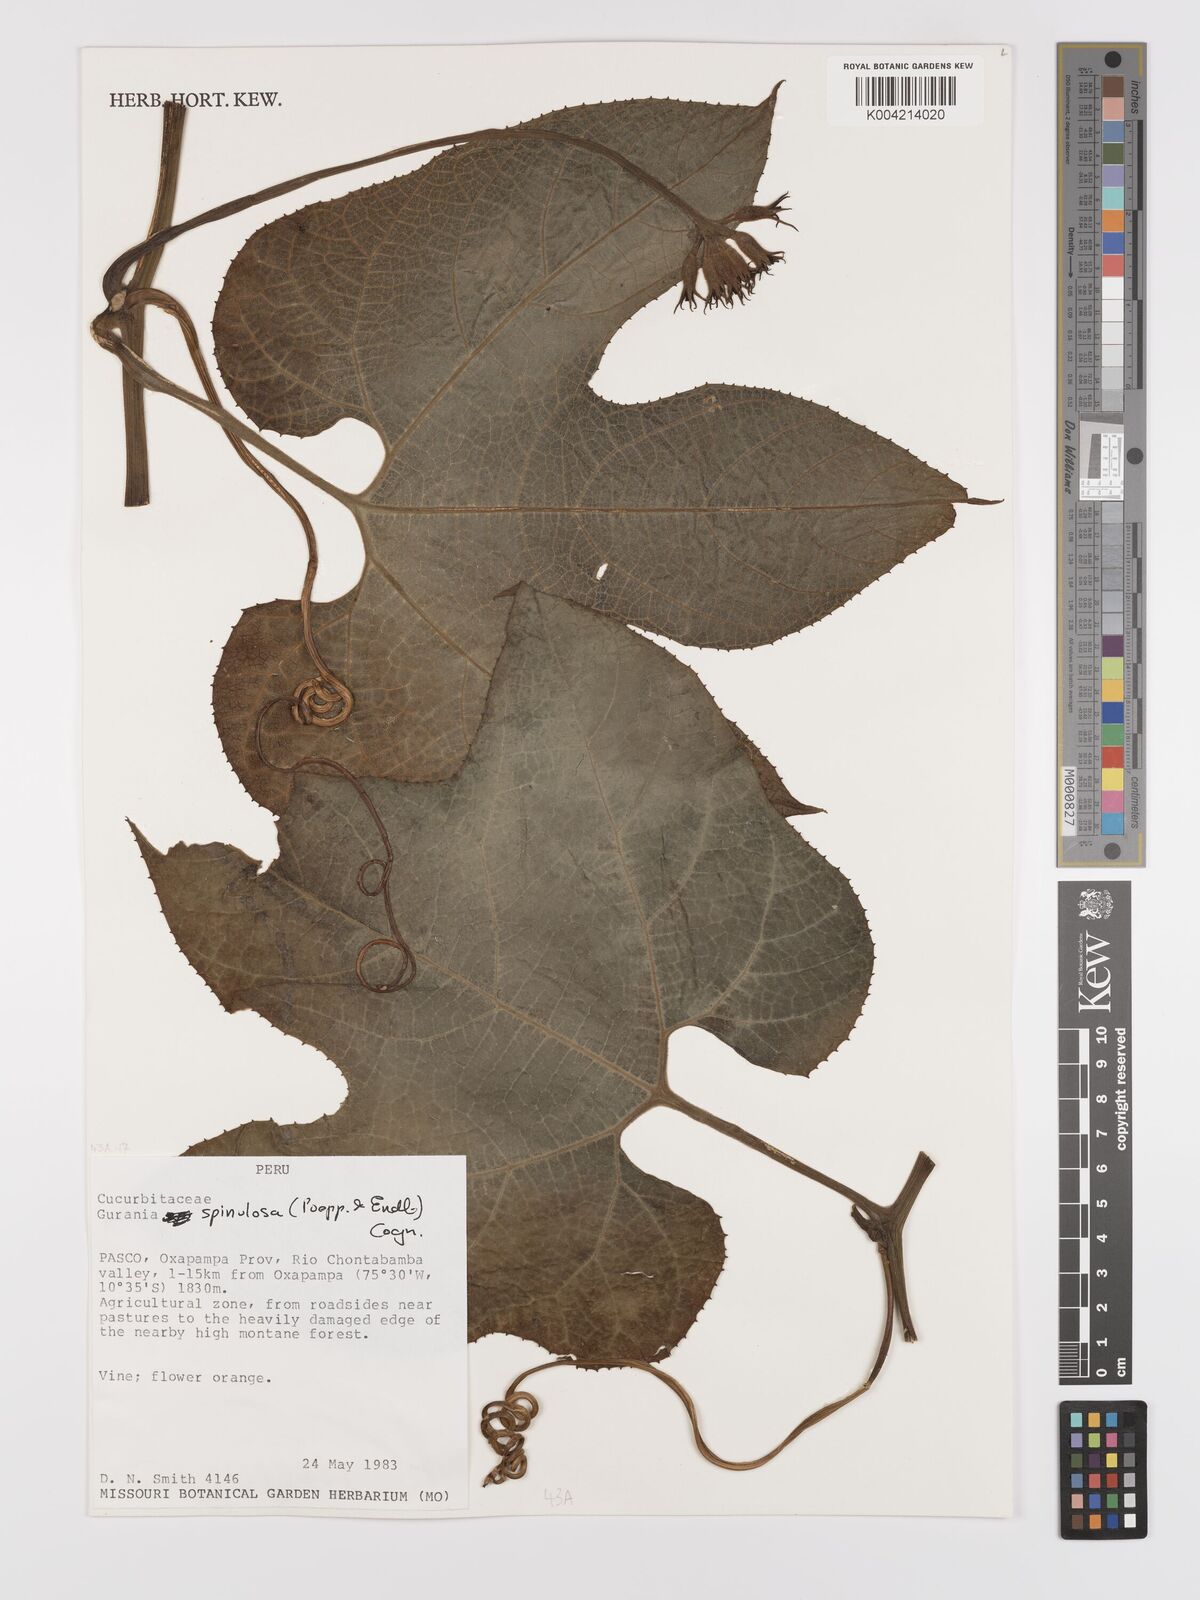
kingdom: Plantae
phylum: Tracheophyta
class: Magnoliopsida
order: Cucurbitales
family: Cucurbitaceae
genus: Gurania
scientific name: Gurania lobata
